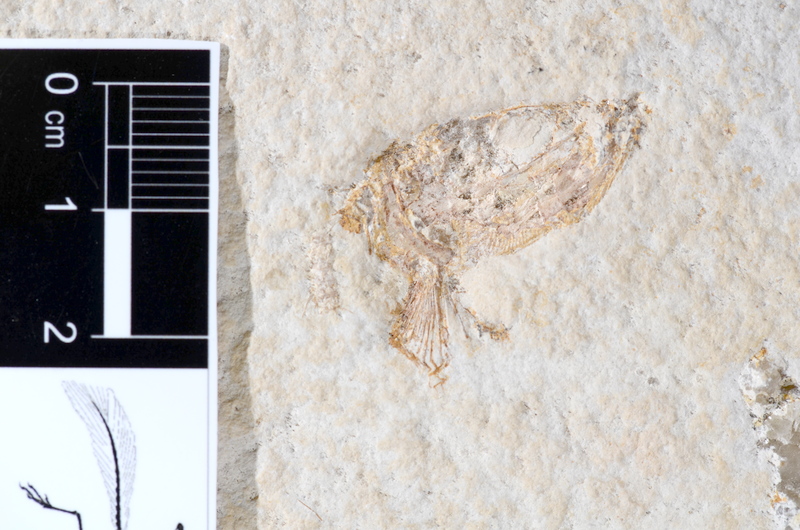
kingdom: Animalia
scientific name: Animalia
